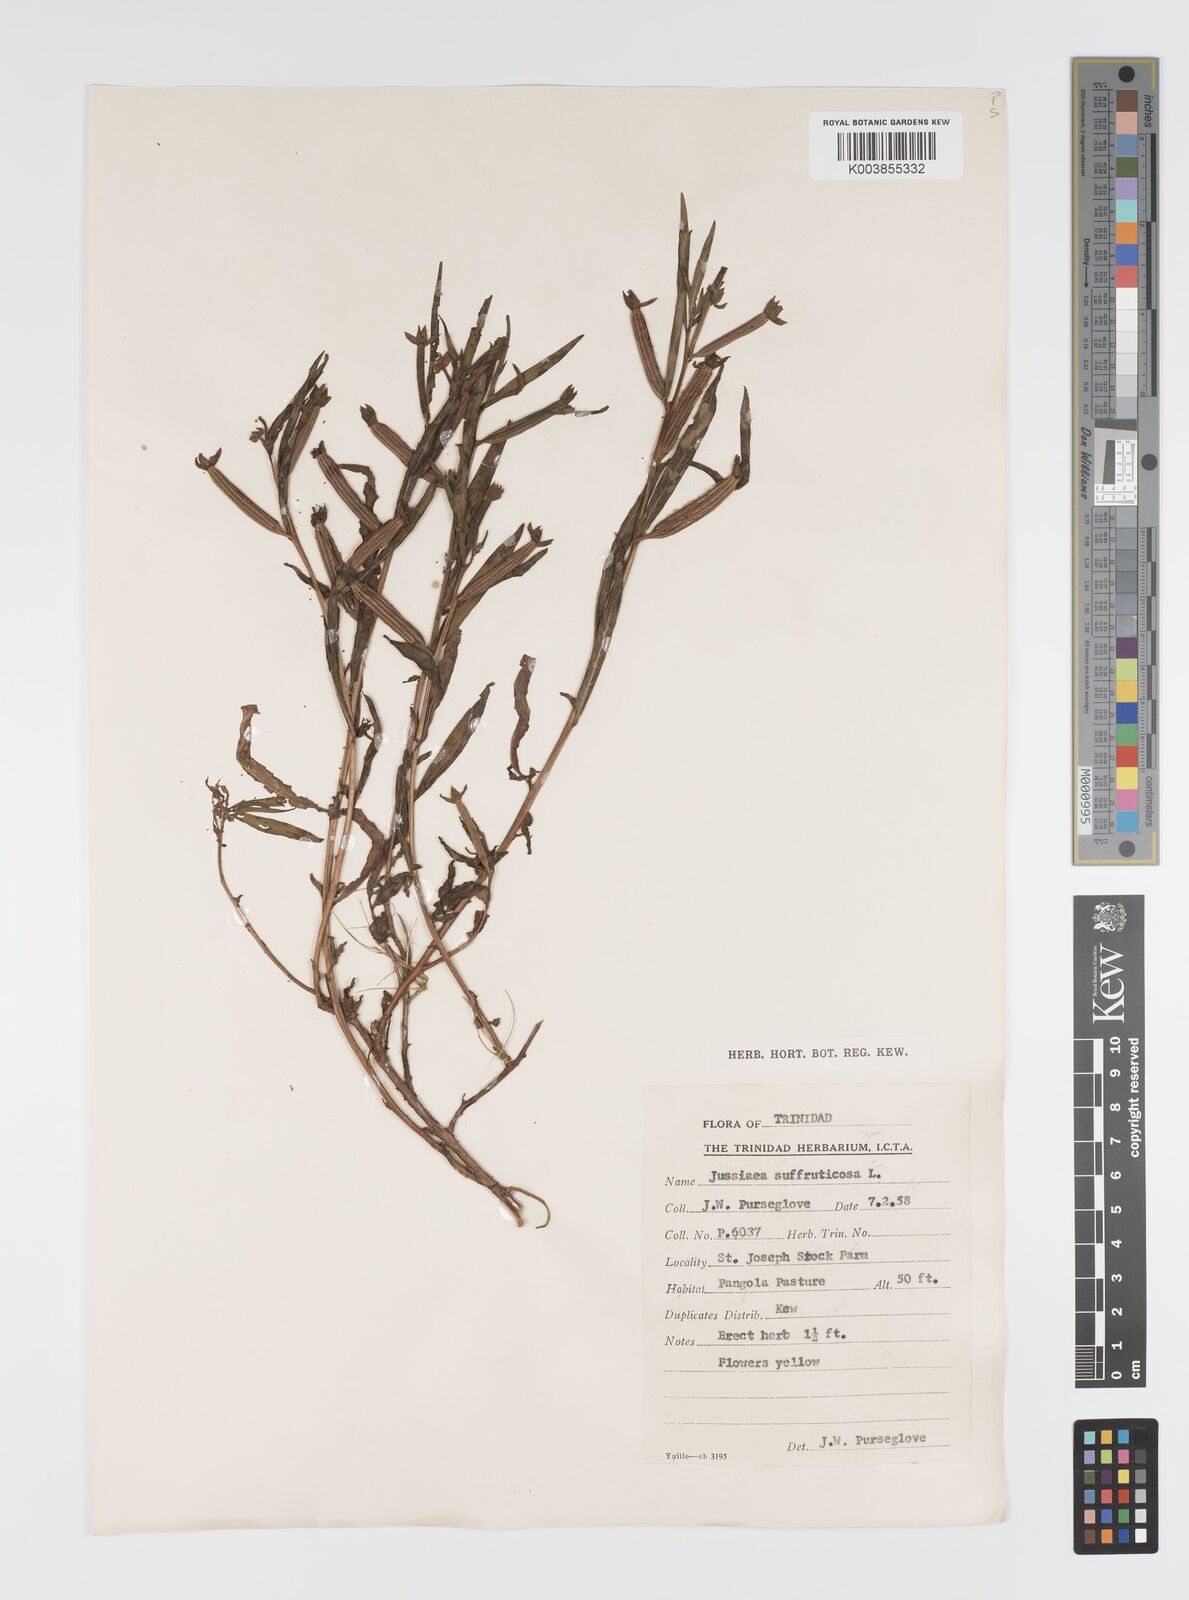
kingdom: Plantae
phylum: Tracheophyta
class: Magnoliopsida
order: Myrtales
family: Onagraceae
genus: Ludwigia
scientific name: Ludwigia
